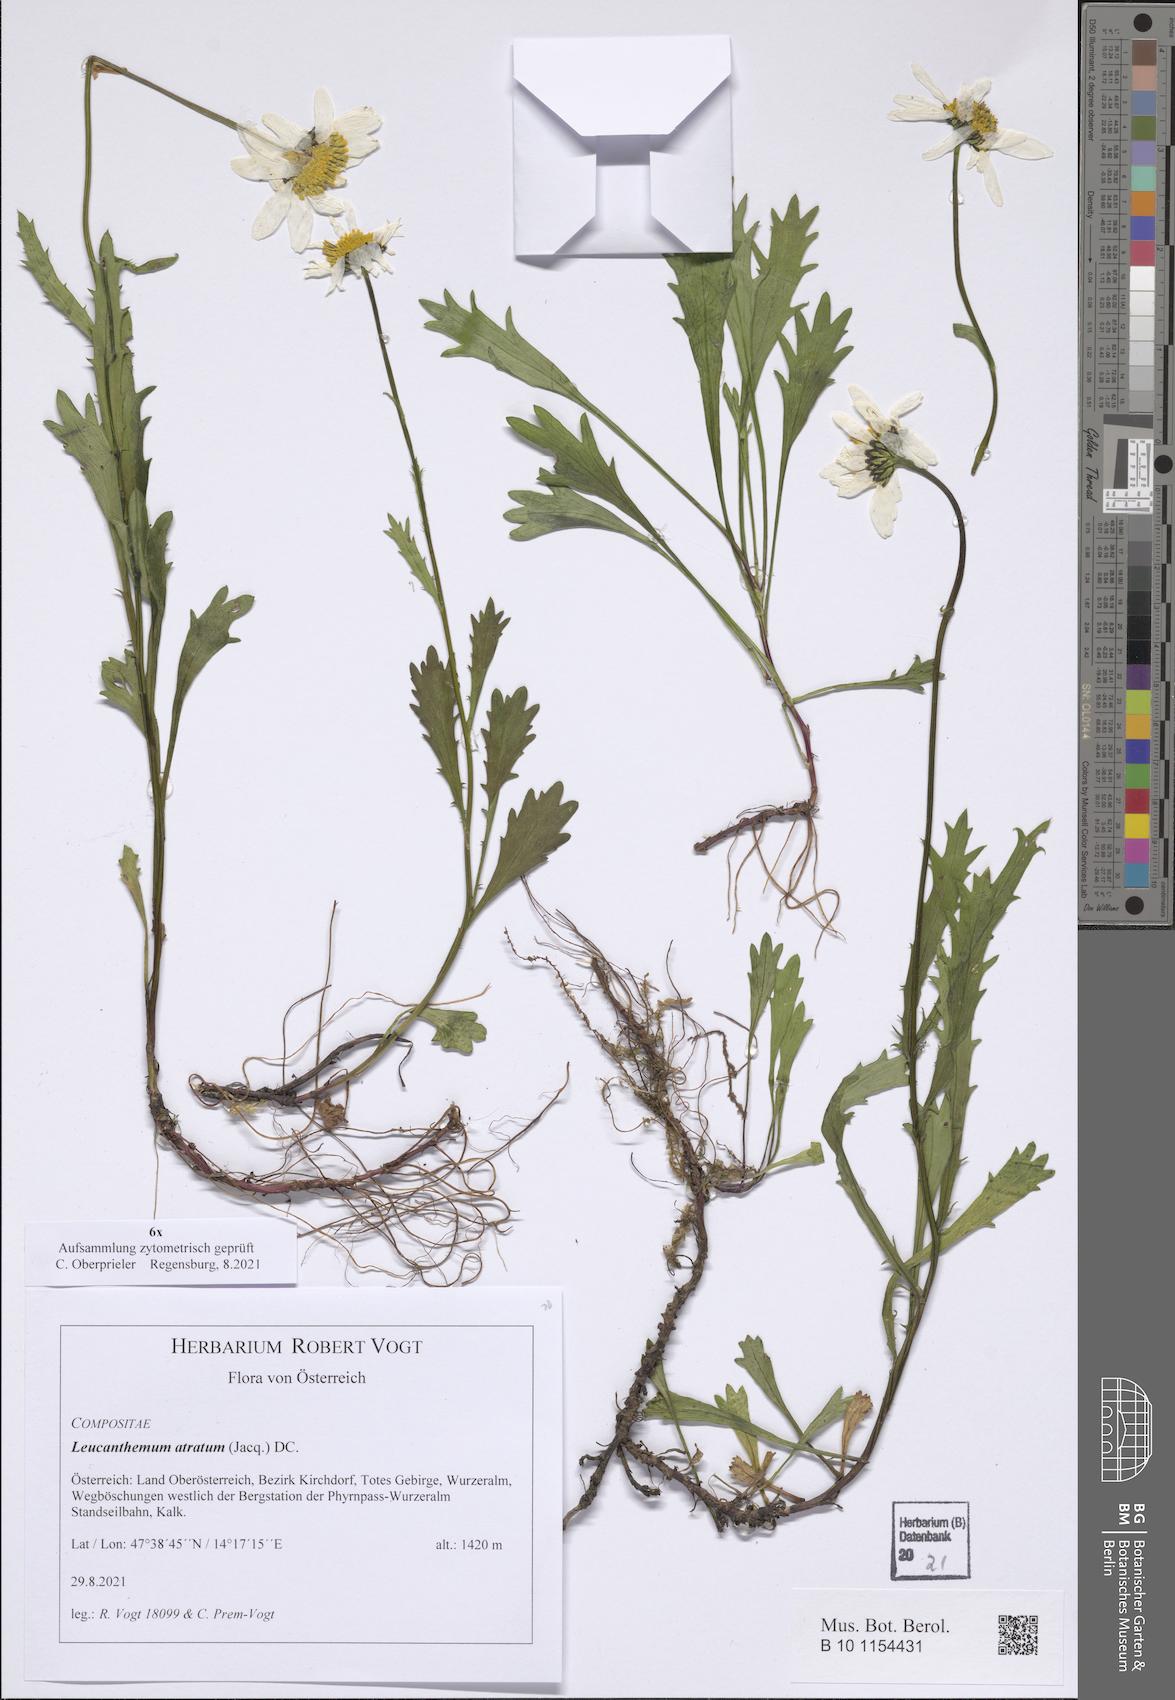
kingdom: Plantae
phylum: Tracheophyta
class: Magnoliopsida
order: Asterales
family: Asteraceae
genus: Leucanthemum
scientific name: Leucanthemum atratum
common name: Saw-leaved moon-daisy
